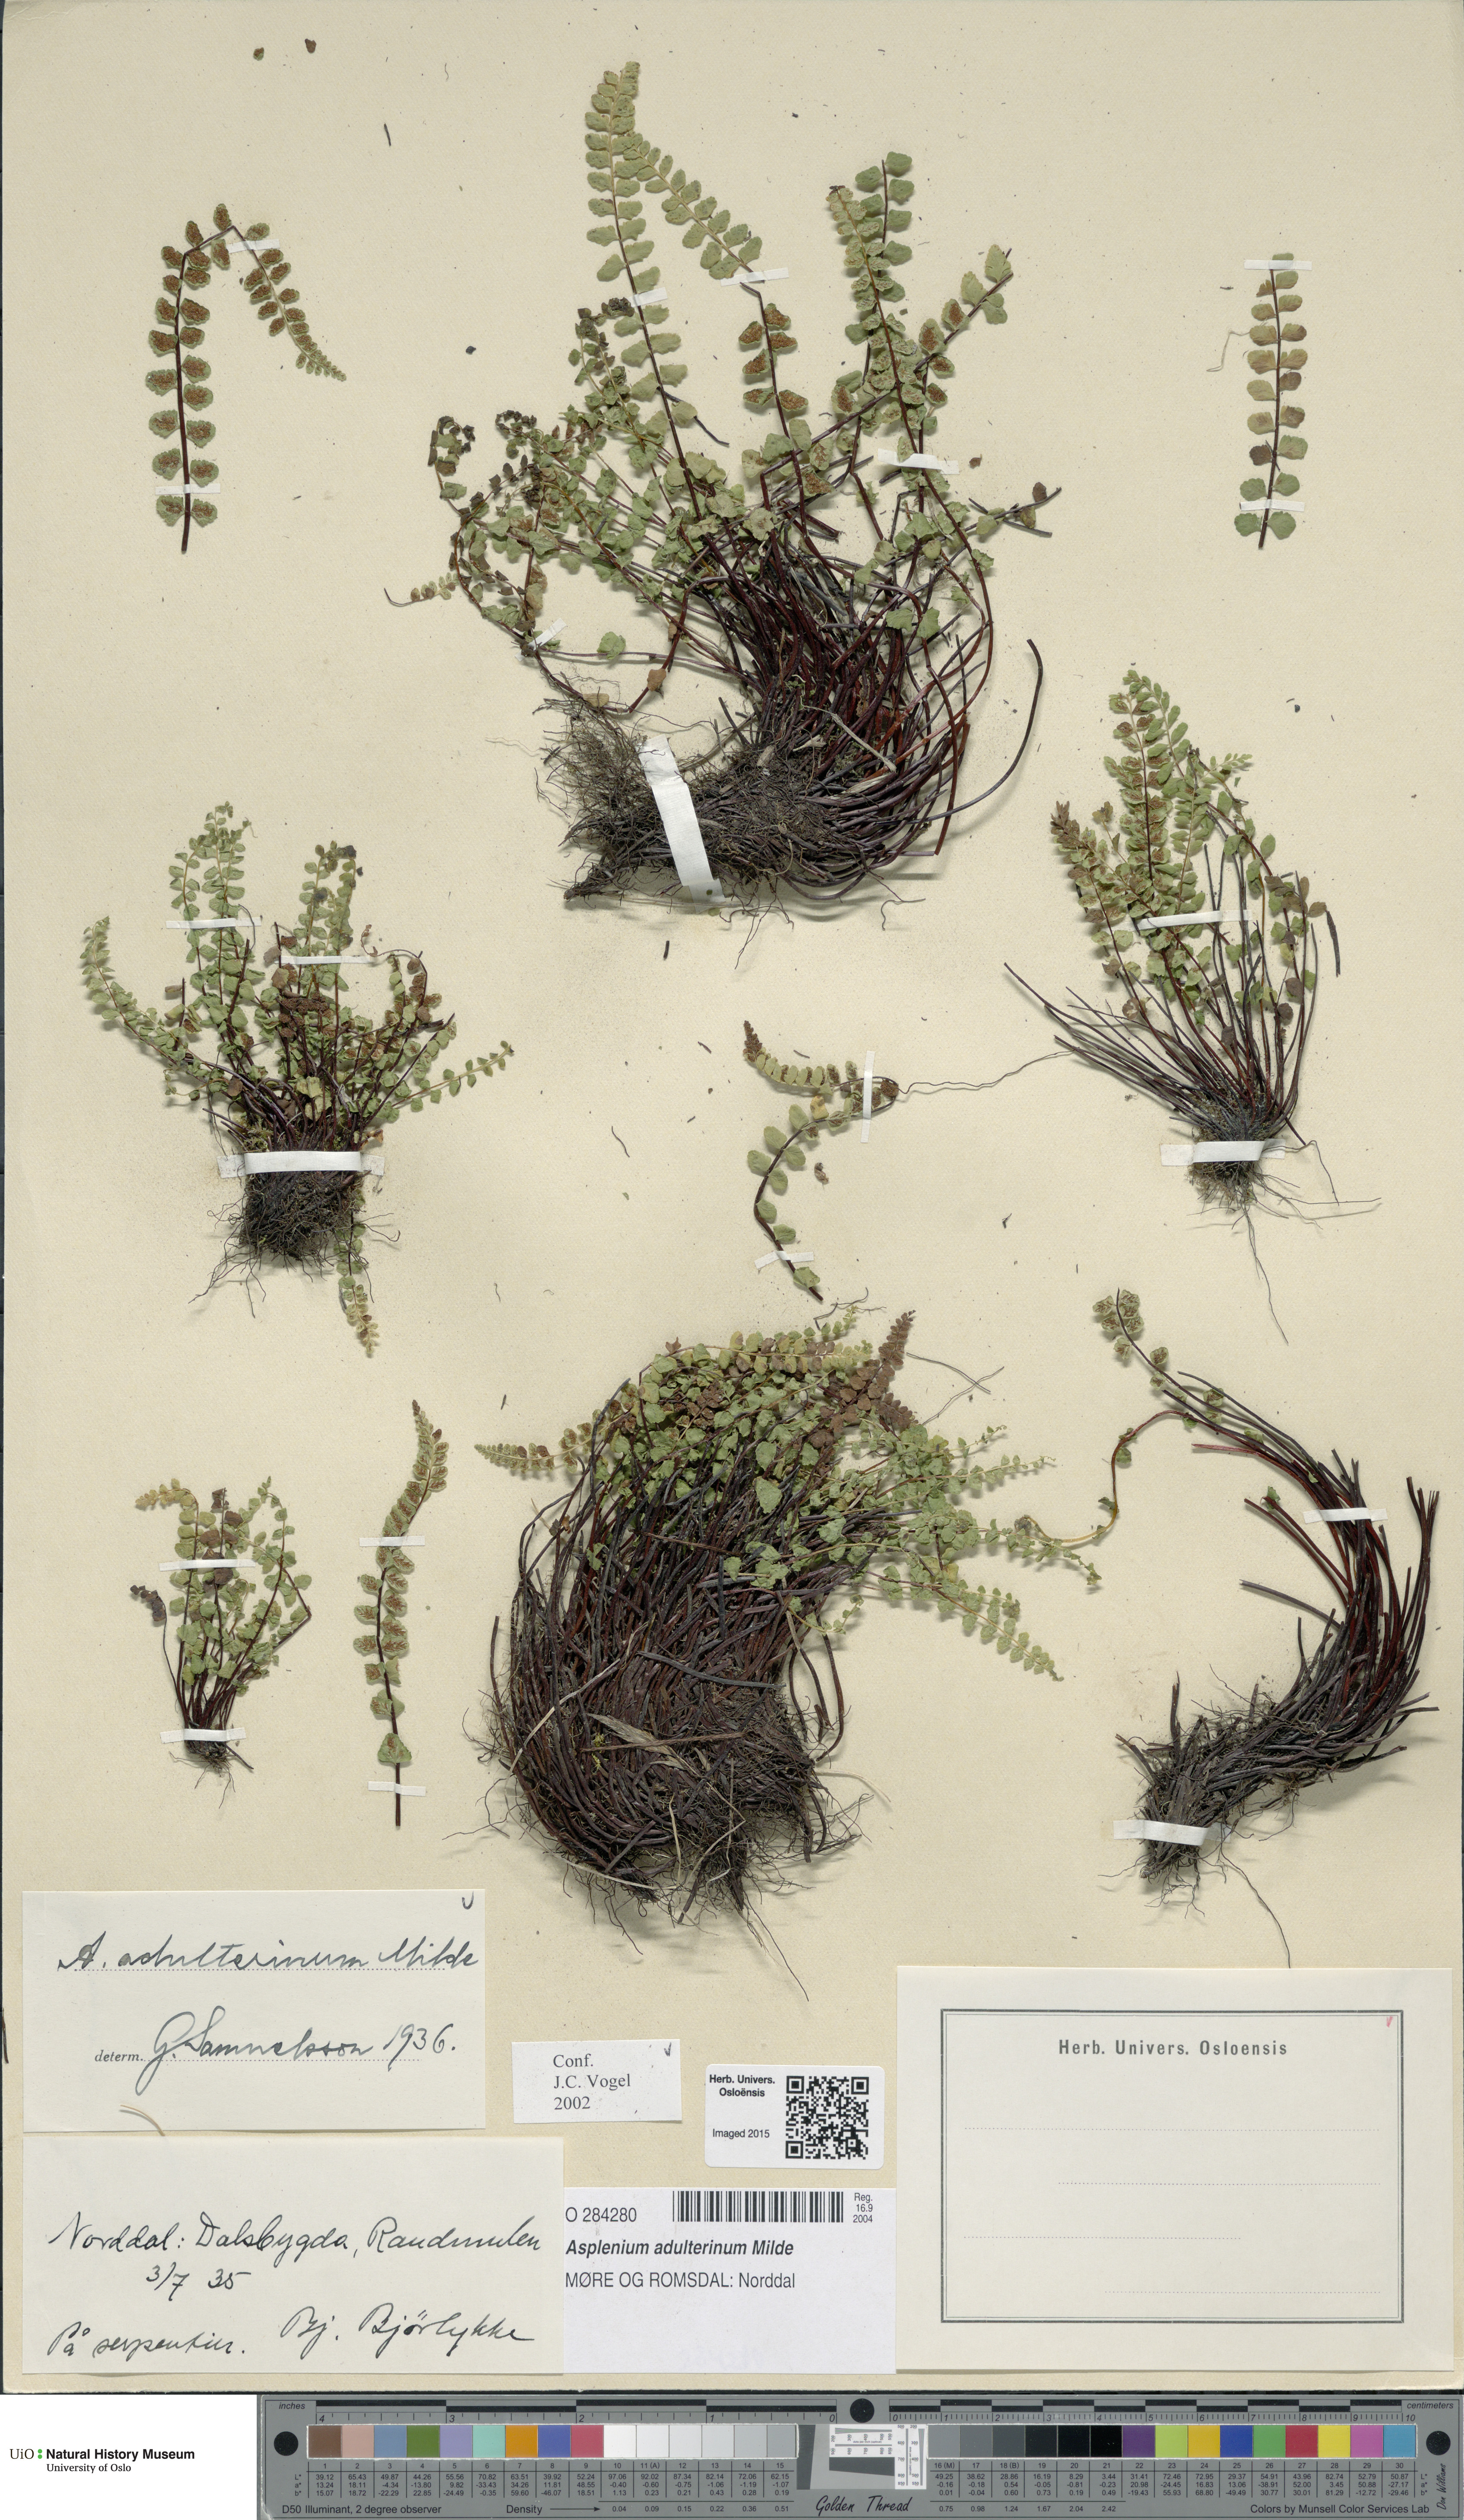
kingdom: Plantae
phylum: Tracheophyta
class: Polypodiopsida
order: Polypodiales
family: Aspleniaceae
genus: Asplenium
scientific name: Asplenium adulterinum
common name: Adulterated spleenwort
